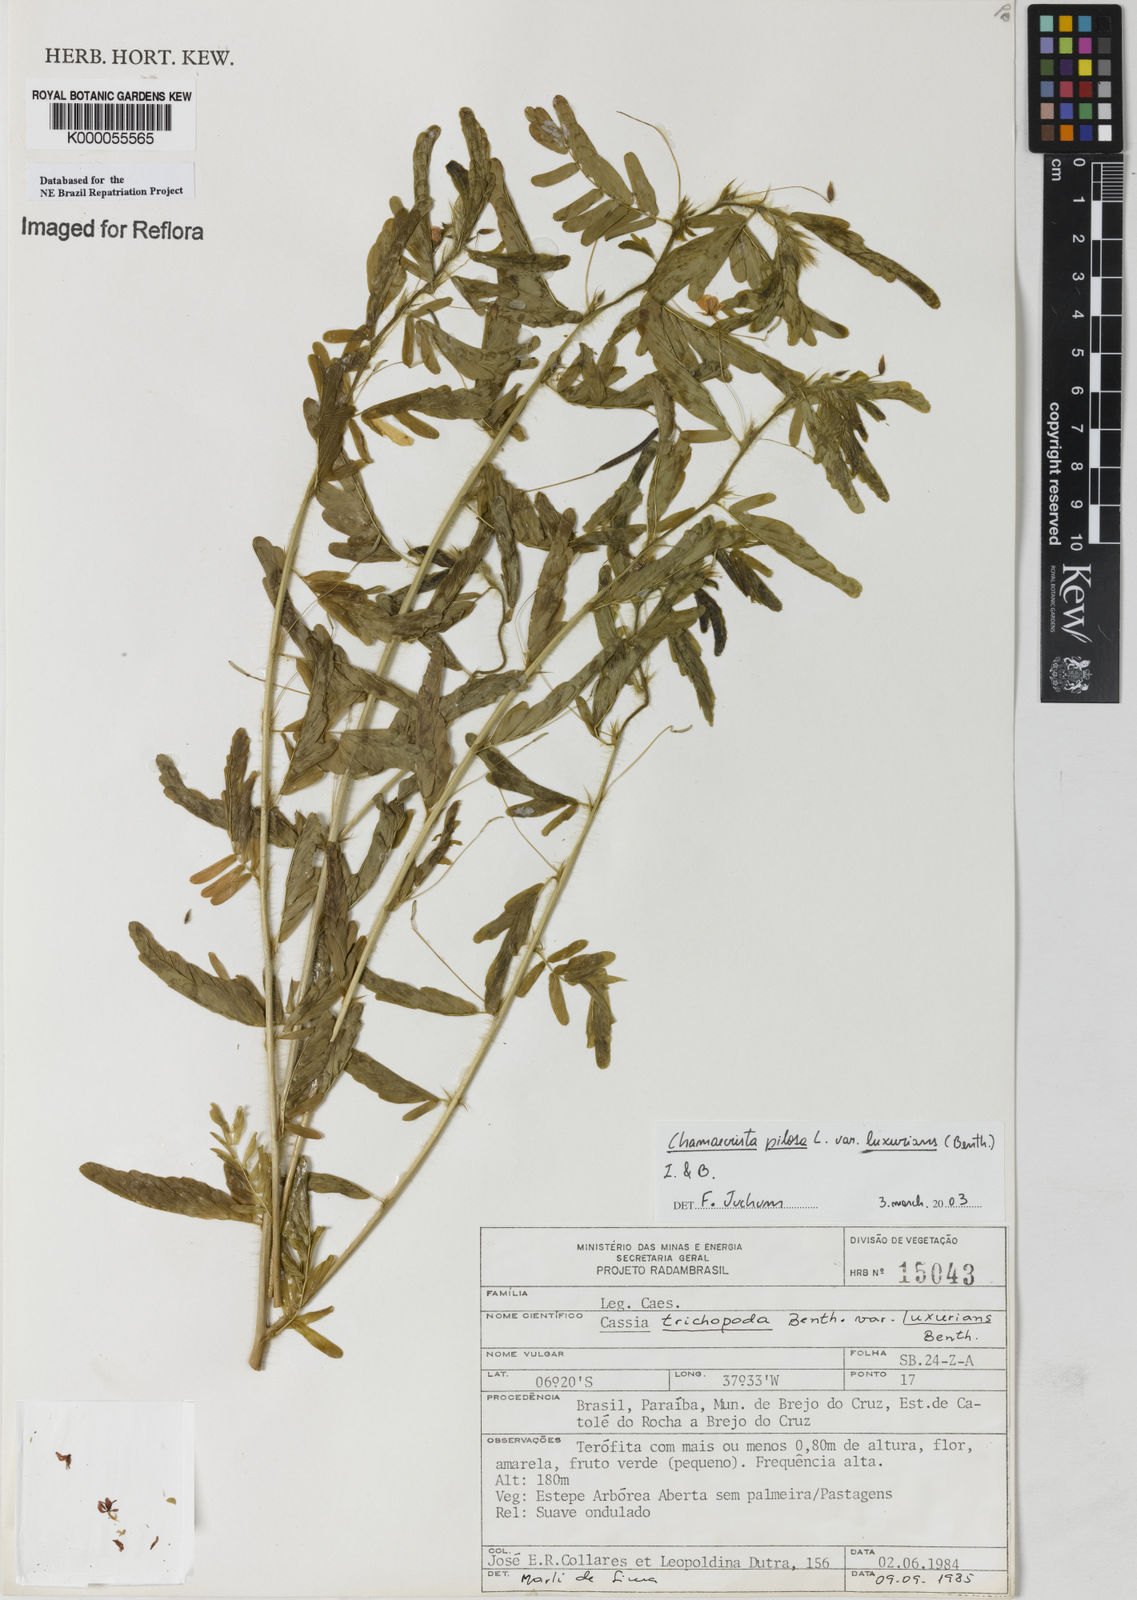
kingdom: Plantae
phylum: Tracheophyta
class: Magnoliopsida
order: Fabales
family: Fabaceae
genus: Chamaecrista
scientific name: Chamaecrista pilosa
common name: Hairy sensitive pea
